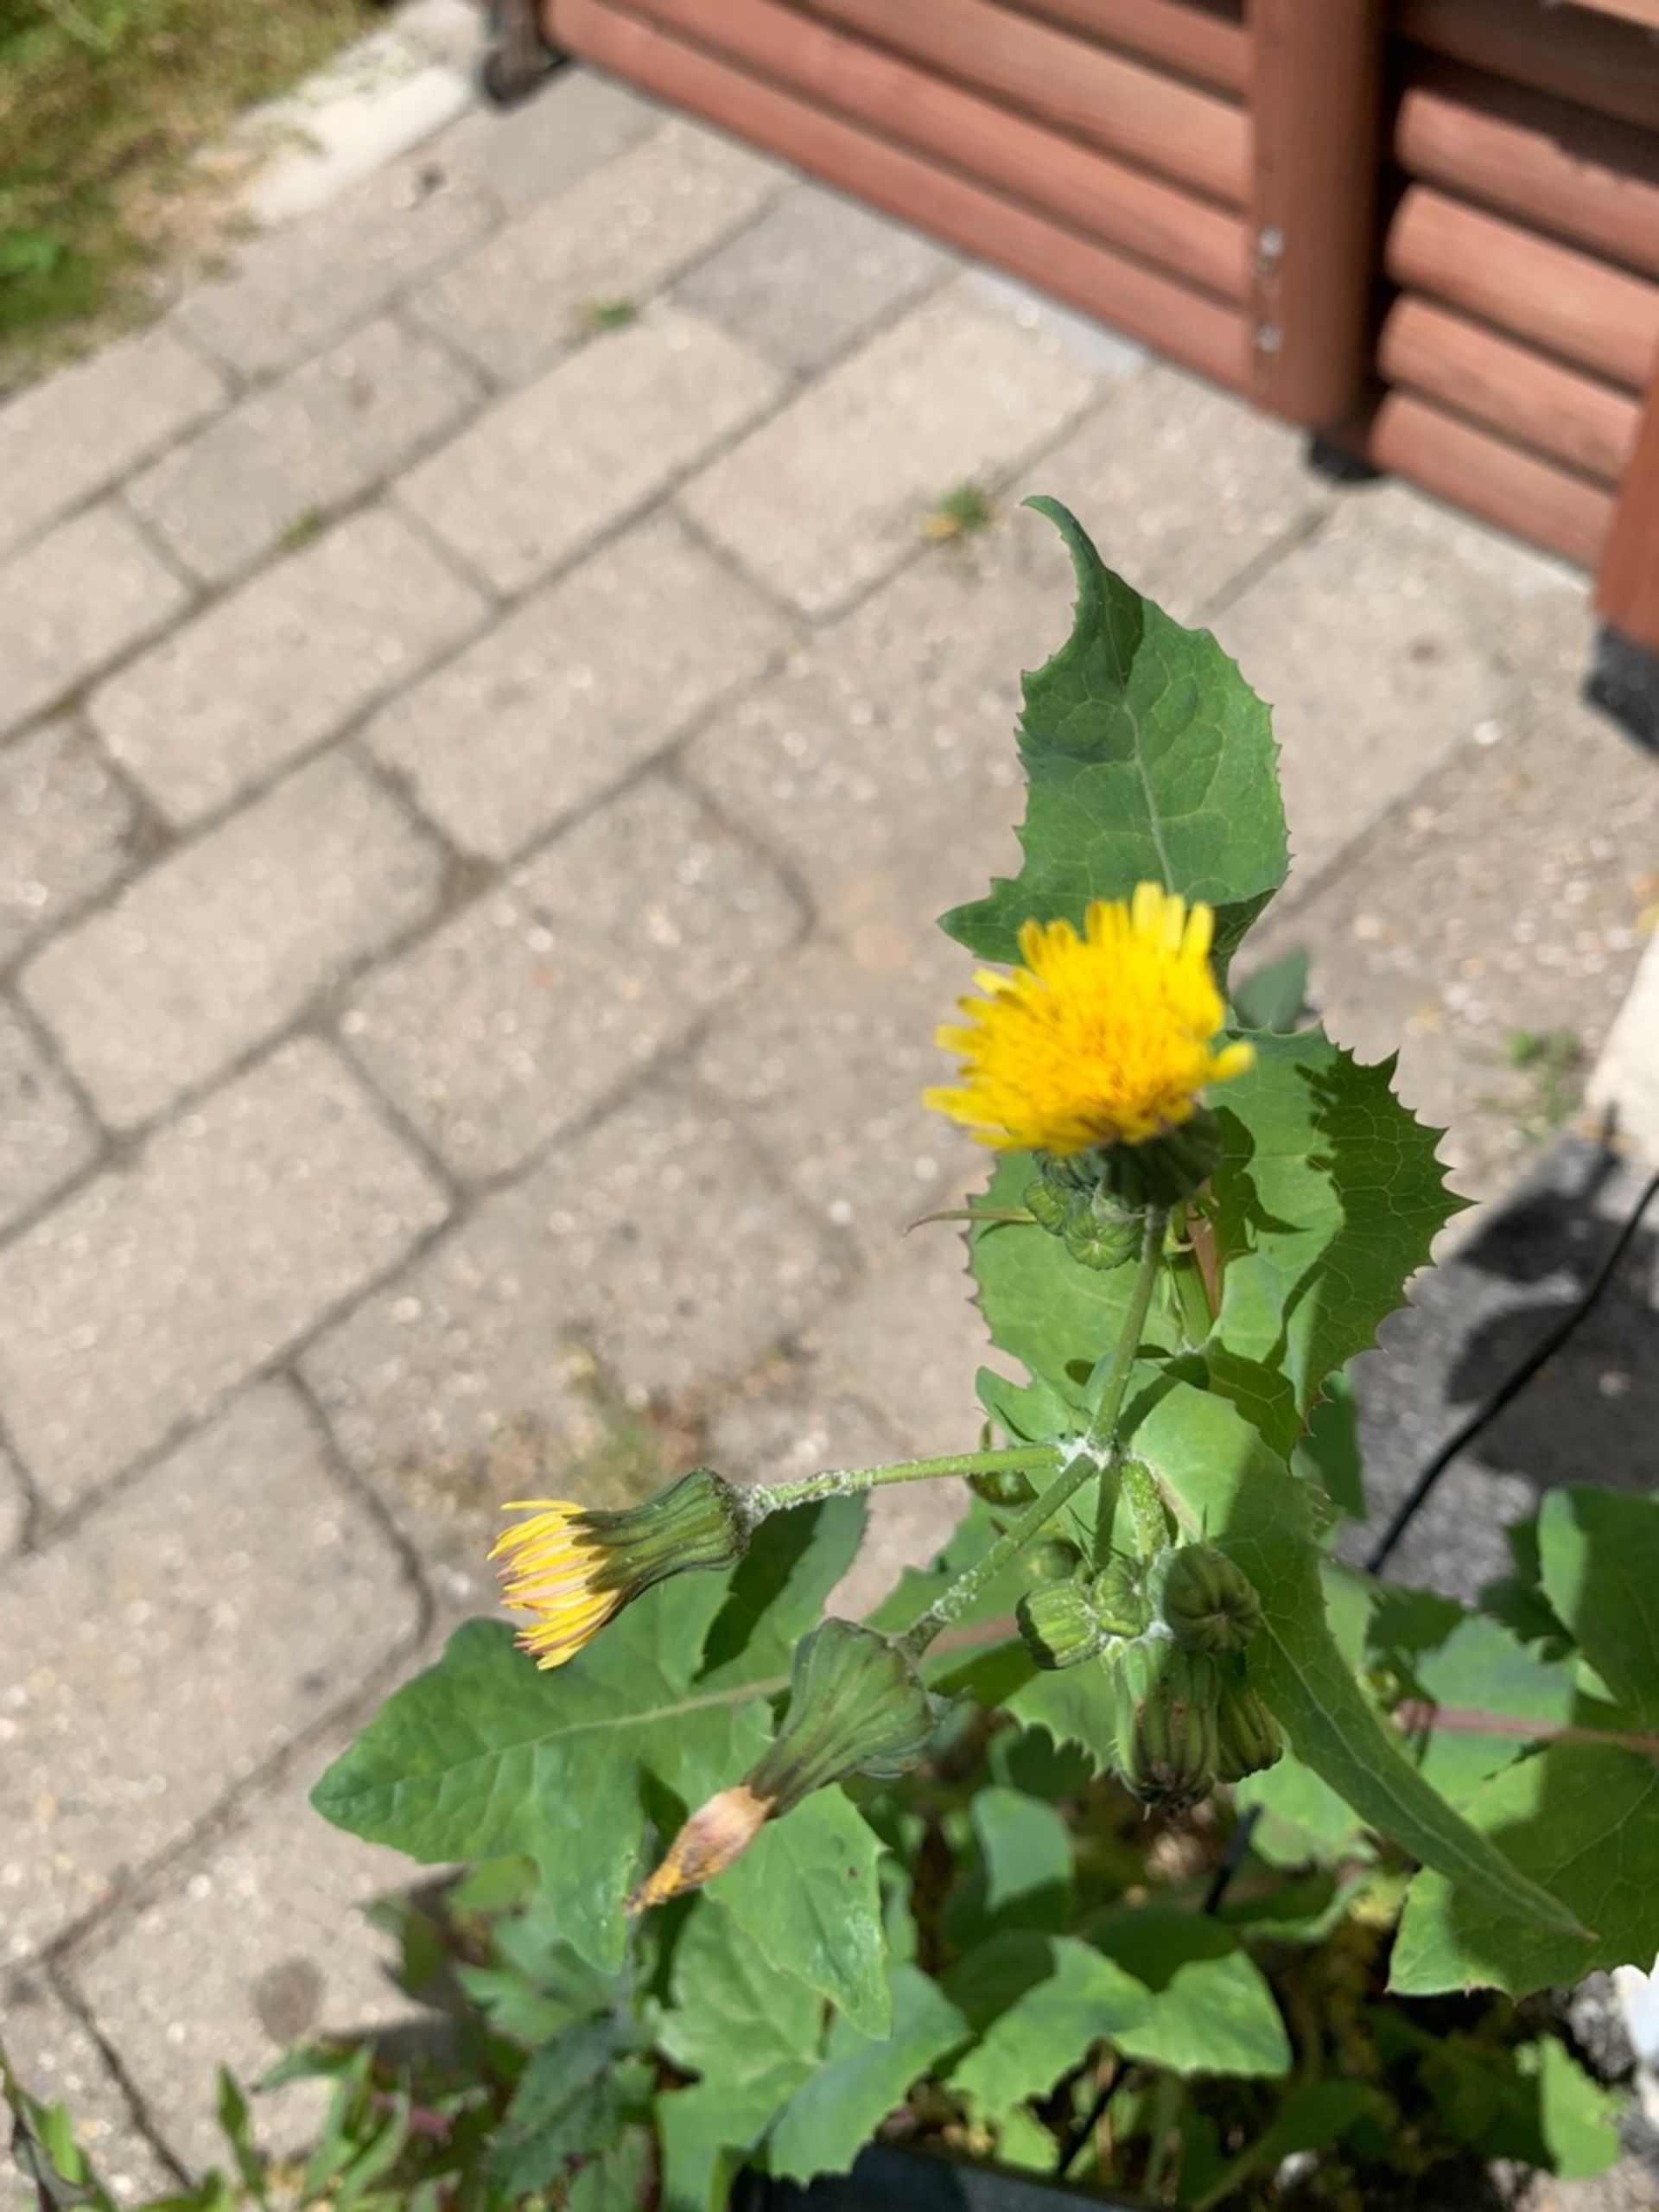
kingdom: Plantae
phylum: Tracheophyta
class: Magnoliopsida
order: Asterales
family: Asteraceae
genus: Sonchus
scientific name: Sonchus oleraceus
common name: Almindelig svinemælk
